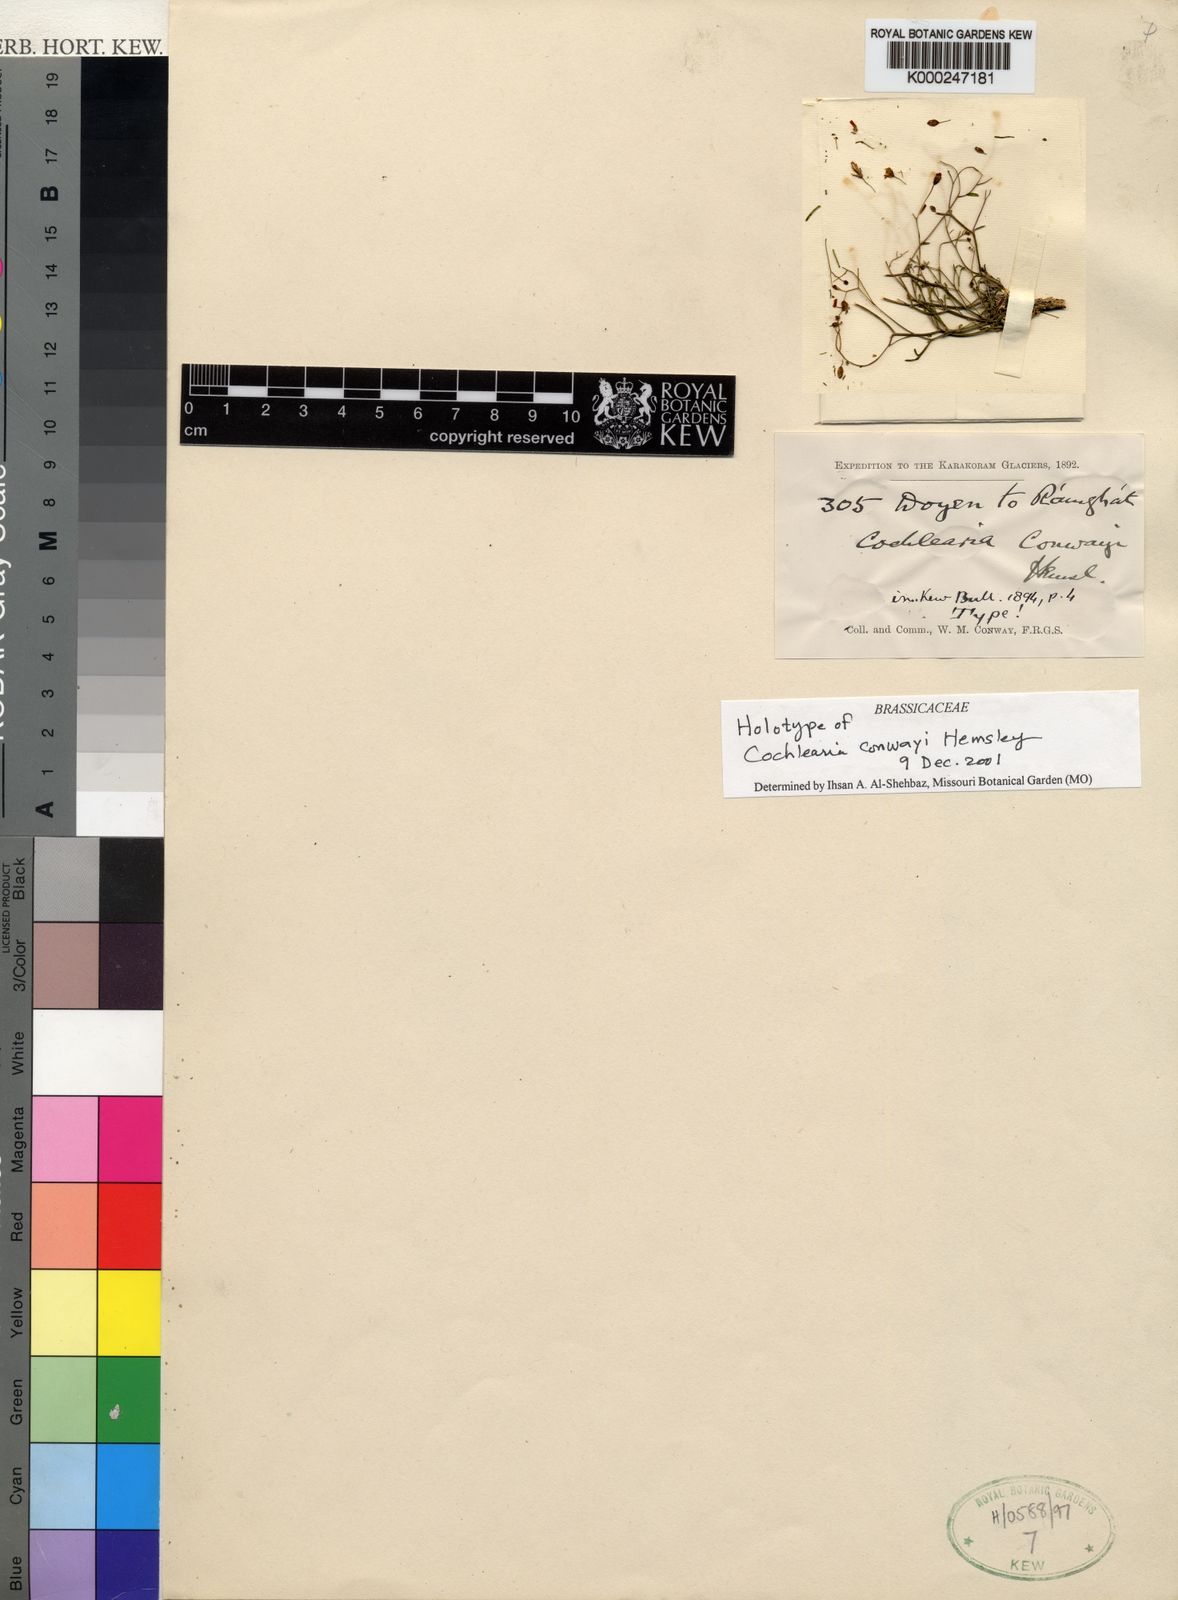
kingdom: Plantae
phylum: Tracheophyta
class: Magnoliopsida
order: Brassicales
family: Brassicaceae
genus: Pseudocamelina
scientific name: Pseudocamelina conwayi
